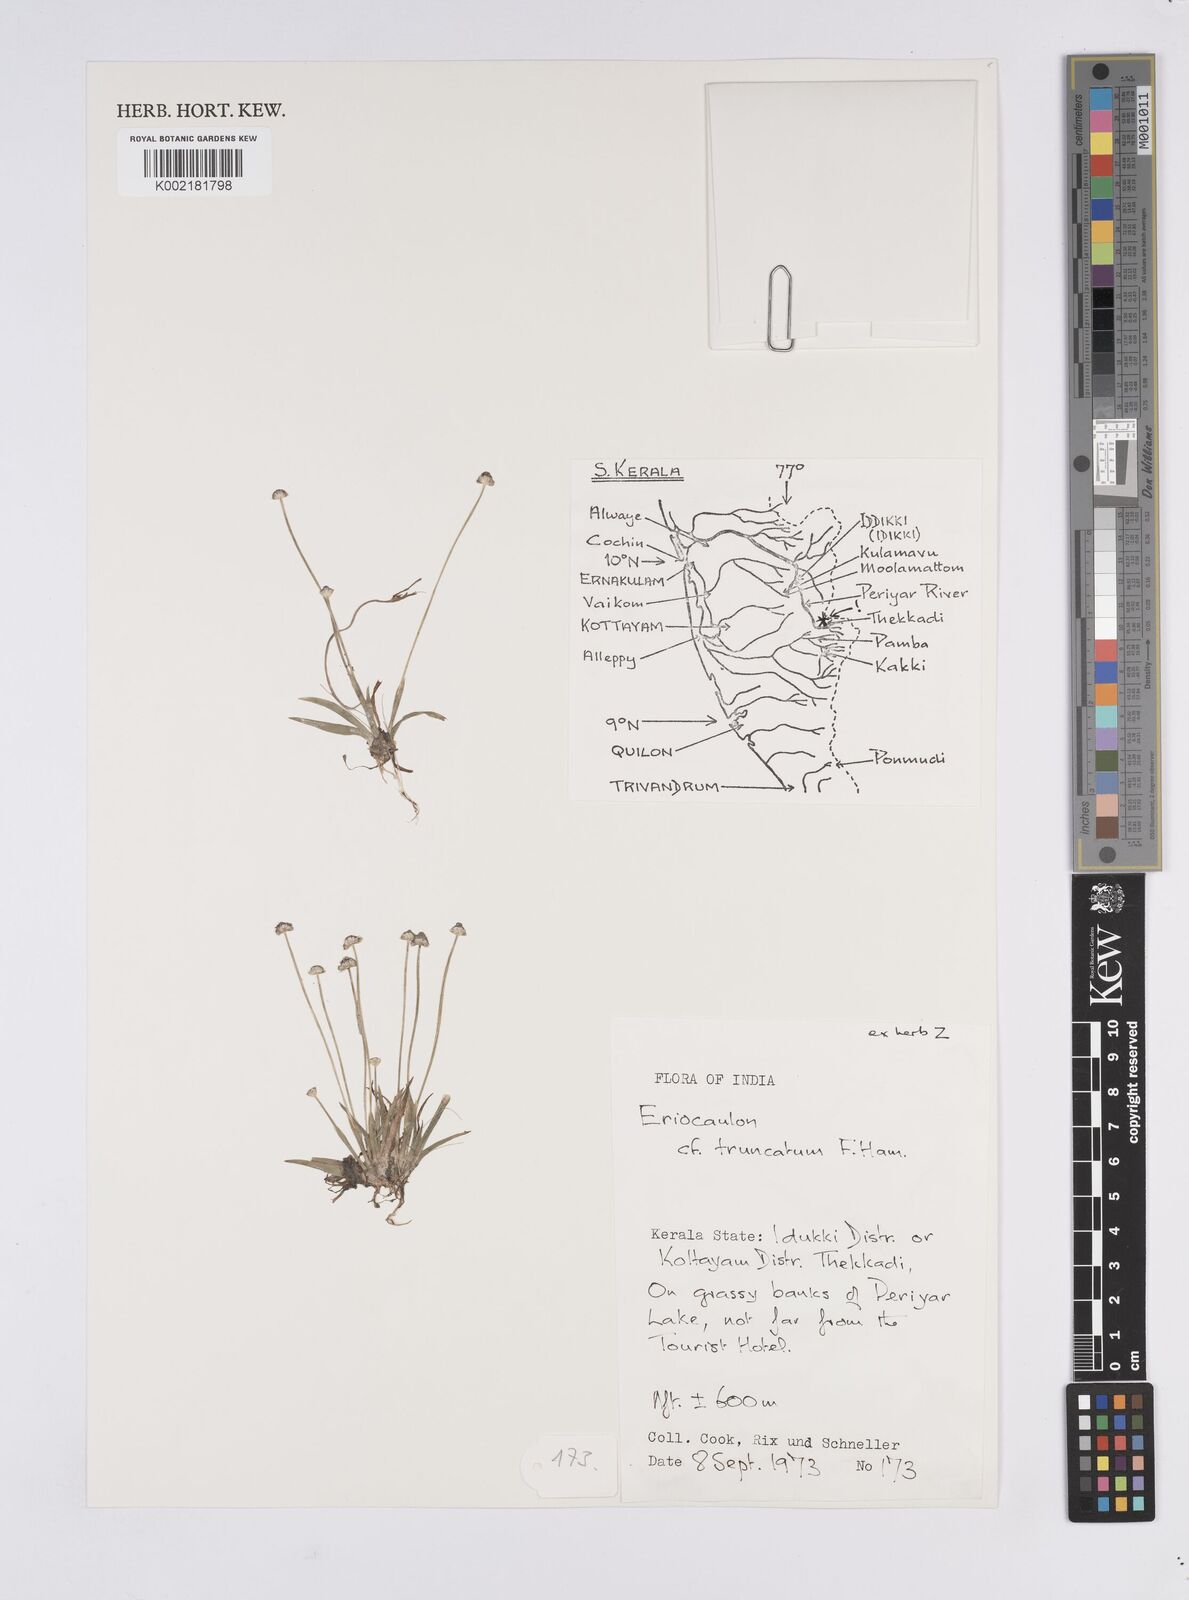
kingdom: Plantae
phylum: Tracheophyta
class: Liliopsida
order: Poales
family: Eriocaulaceae
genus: Eriocaulon
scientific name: Eriocaulon truncatum
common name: Short pipe-wort
